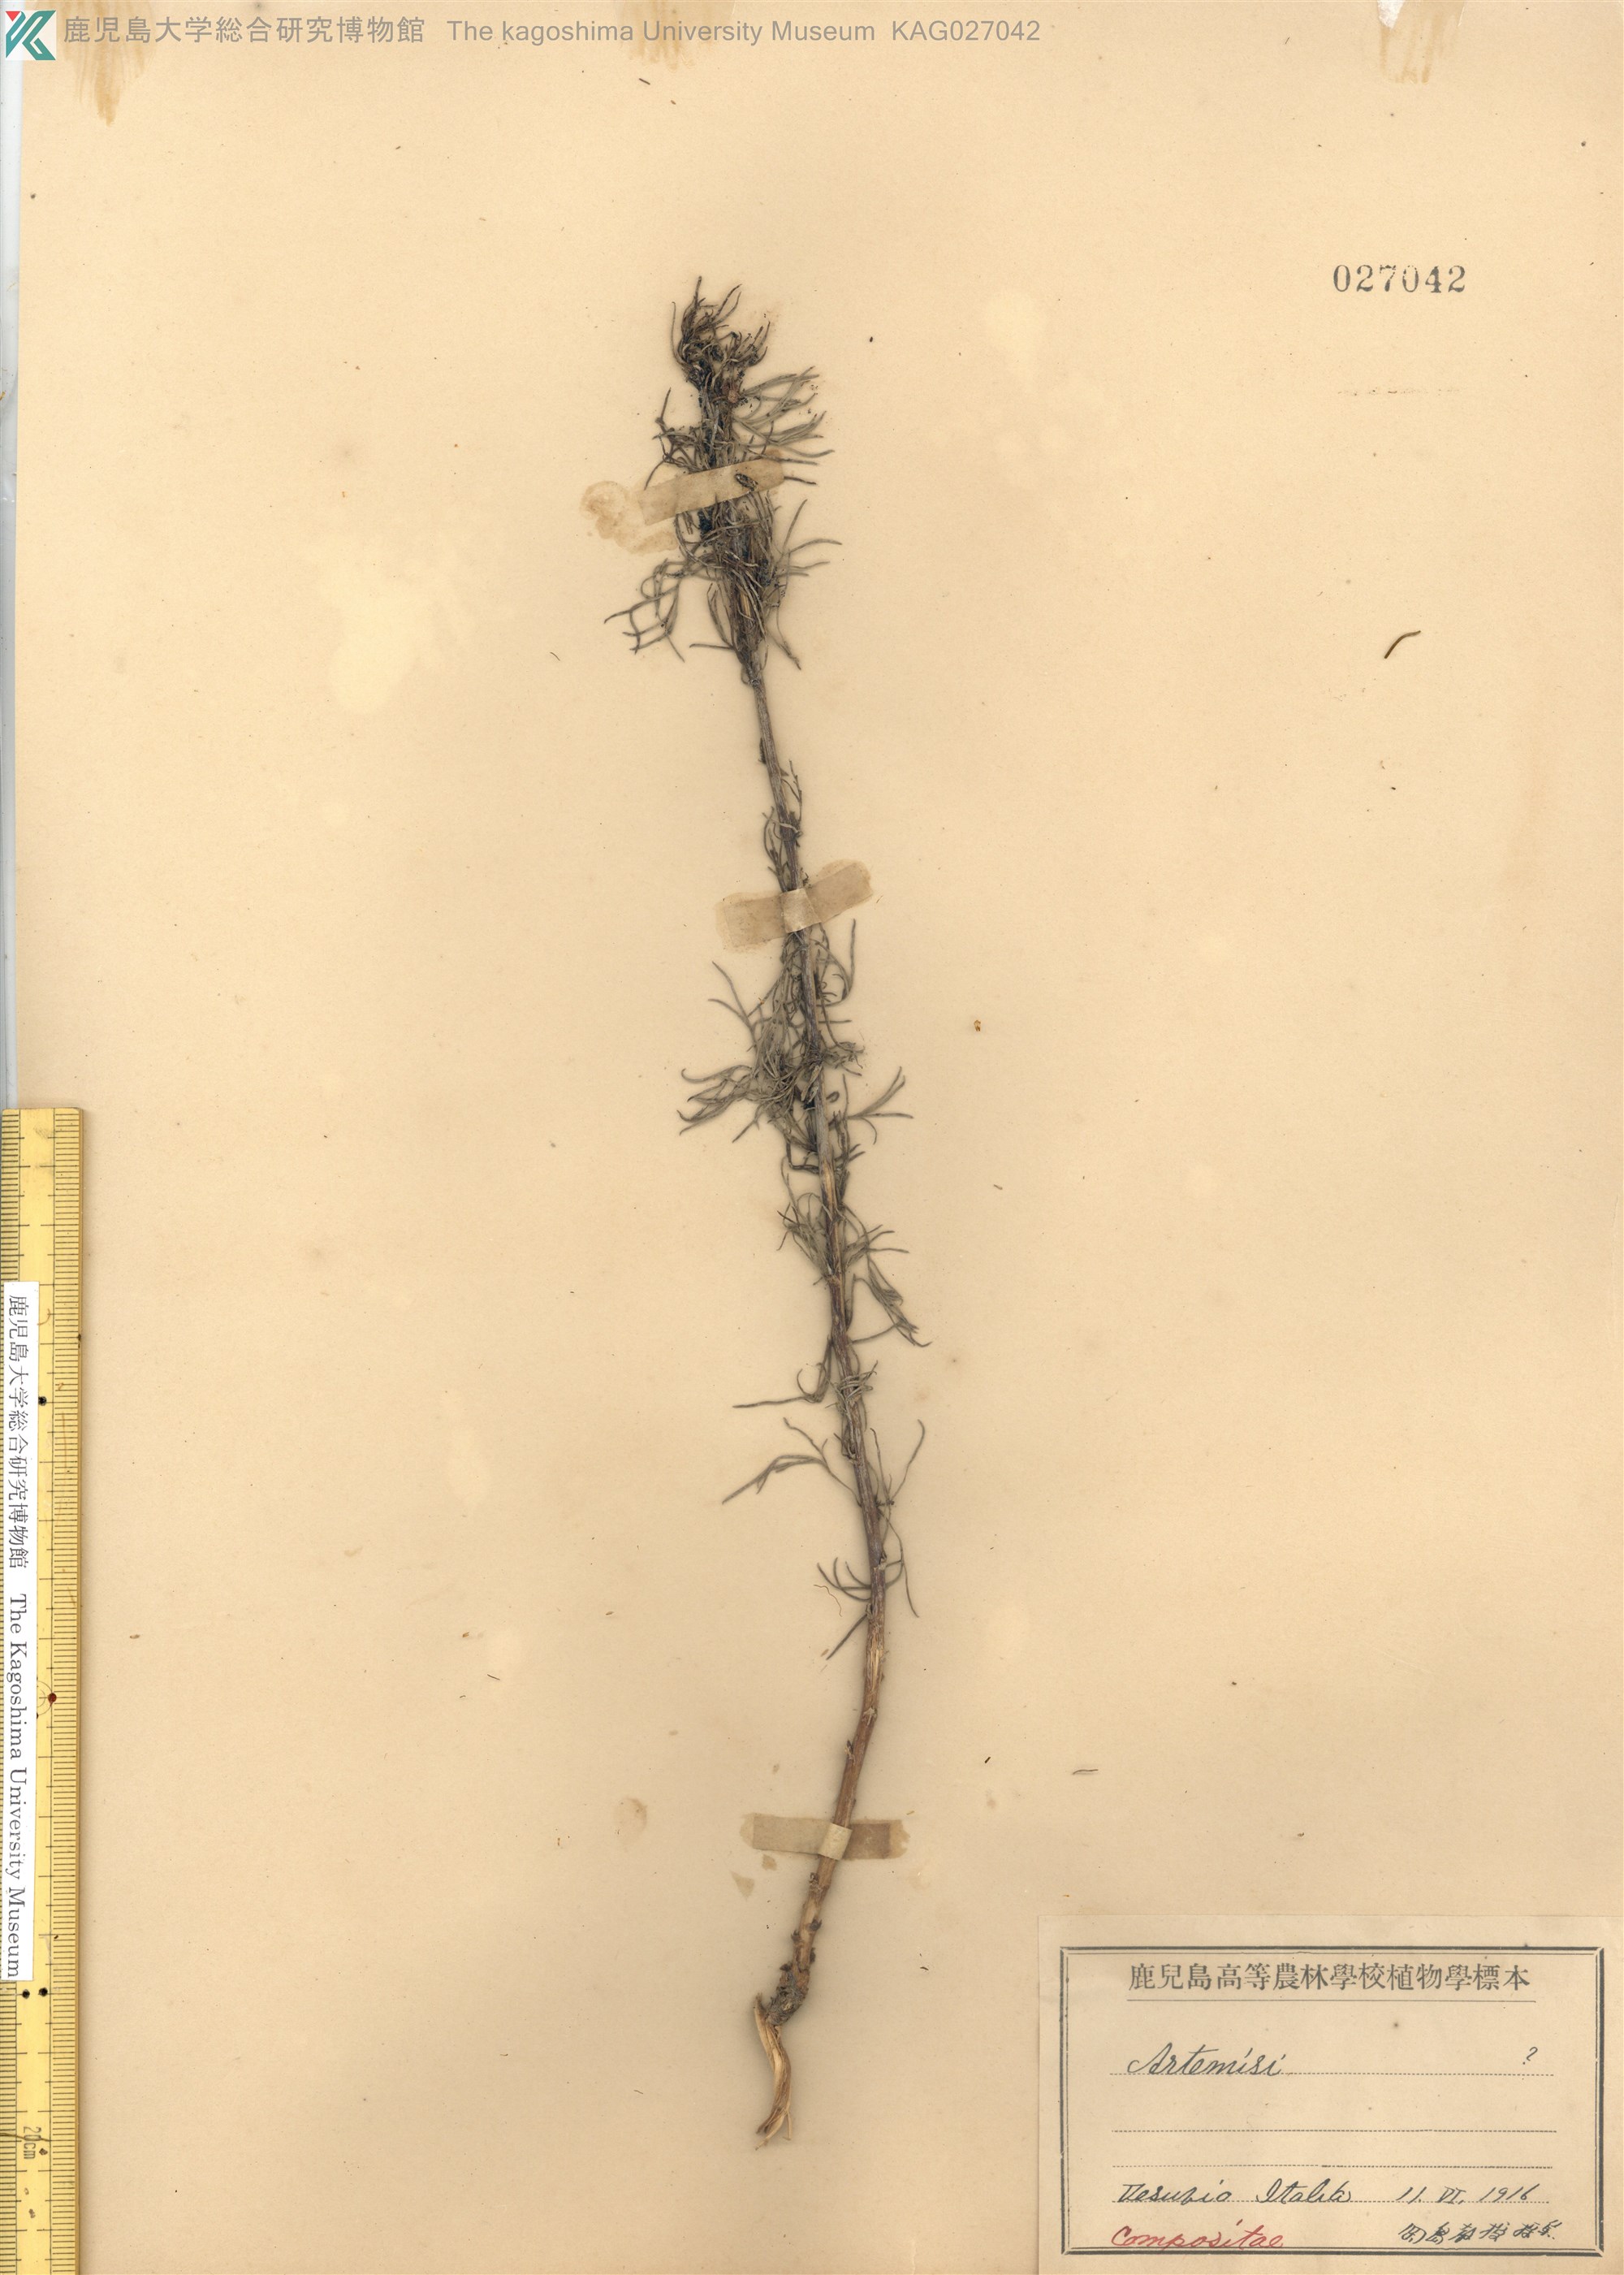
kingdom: Plantae
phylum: Tracheophyta
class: Magnoliopsida
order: Asterales
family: Asteraceae
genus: Artemisia
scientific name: Artemisia
